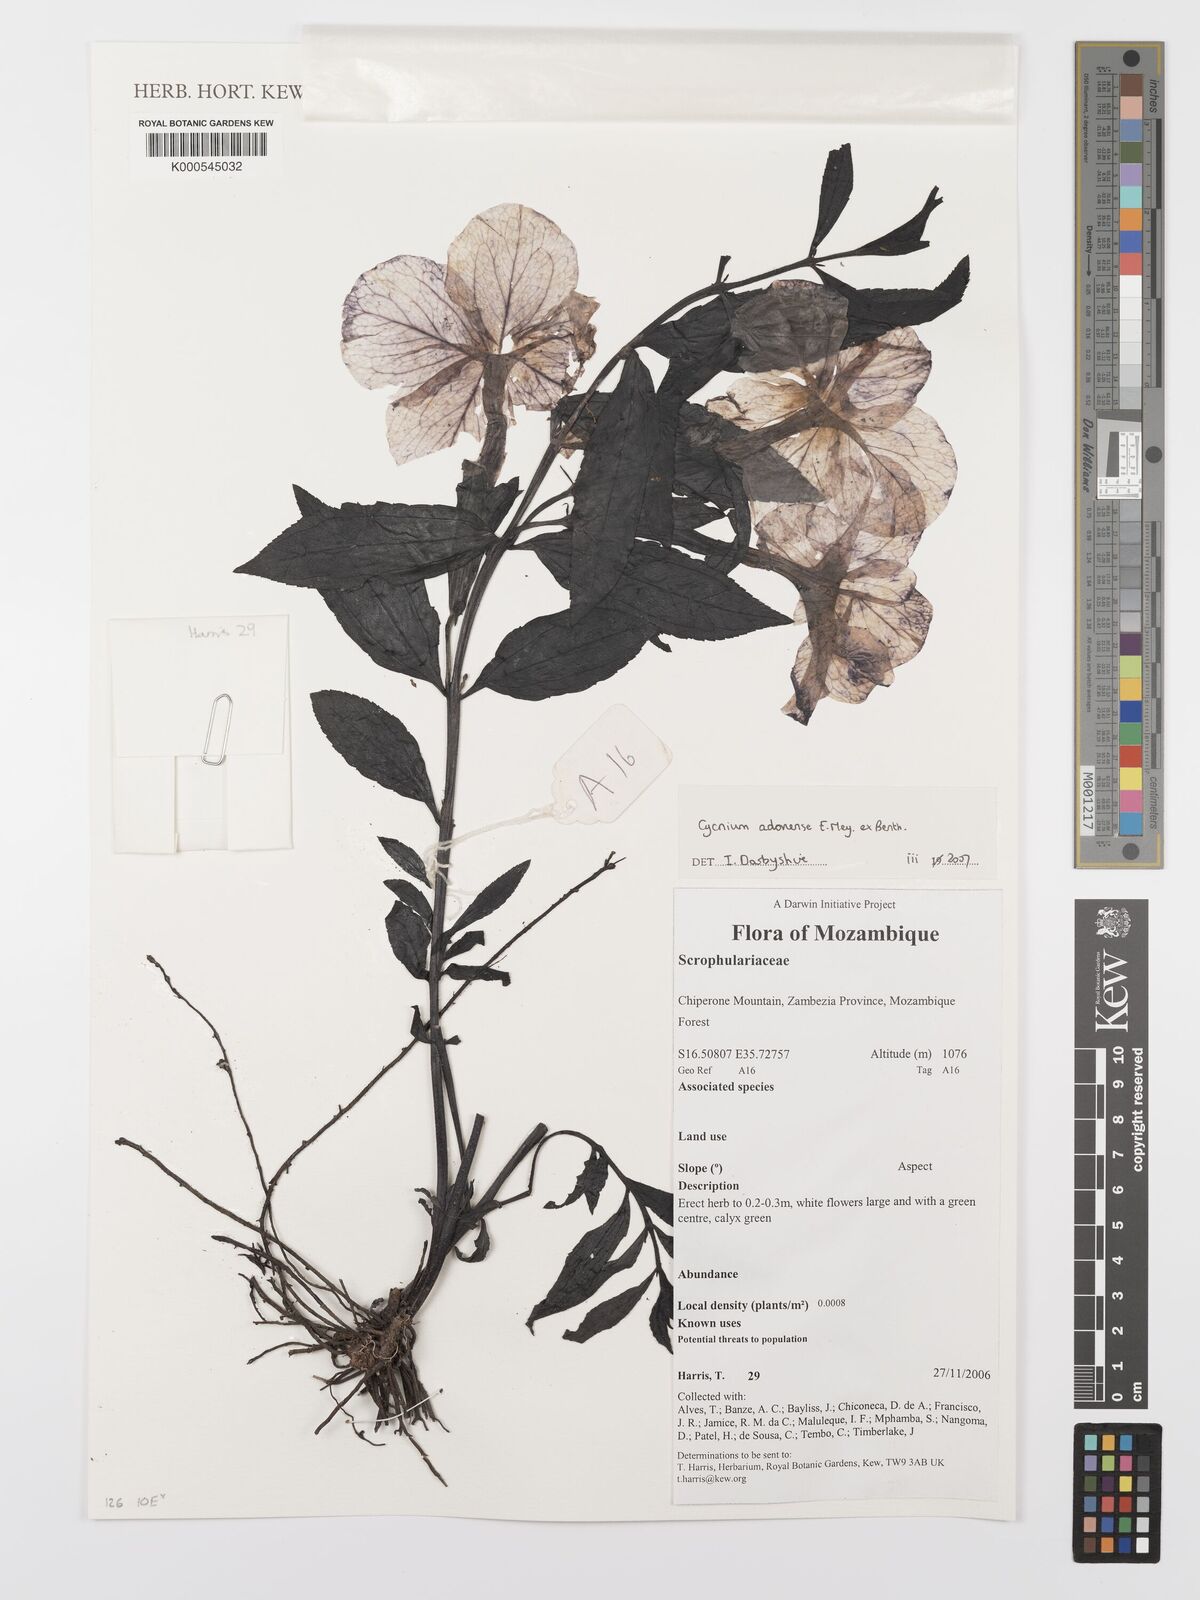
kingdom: Plantae
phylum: Tracheophyta
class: Magnoliopsida
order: Lamiales
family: Orobanchaceae
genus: Cycnium
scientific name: Cycnium adonense
